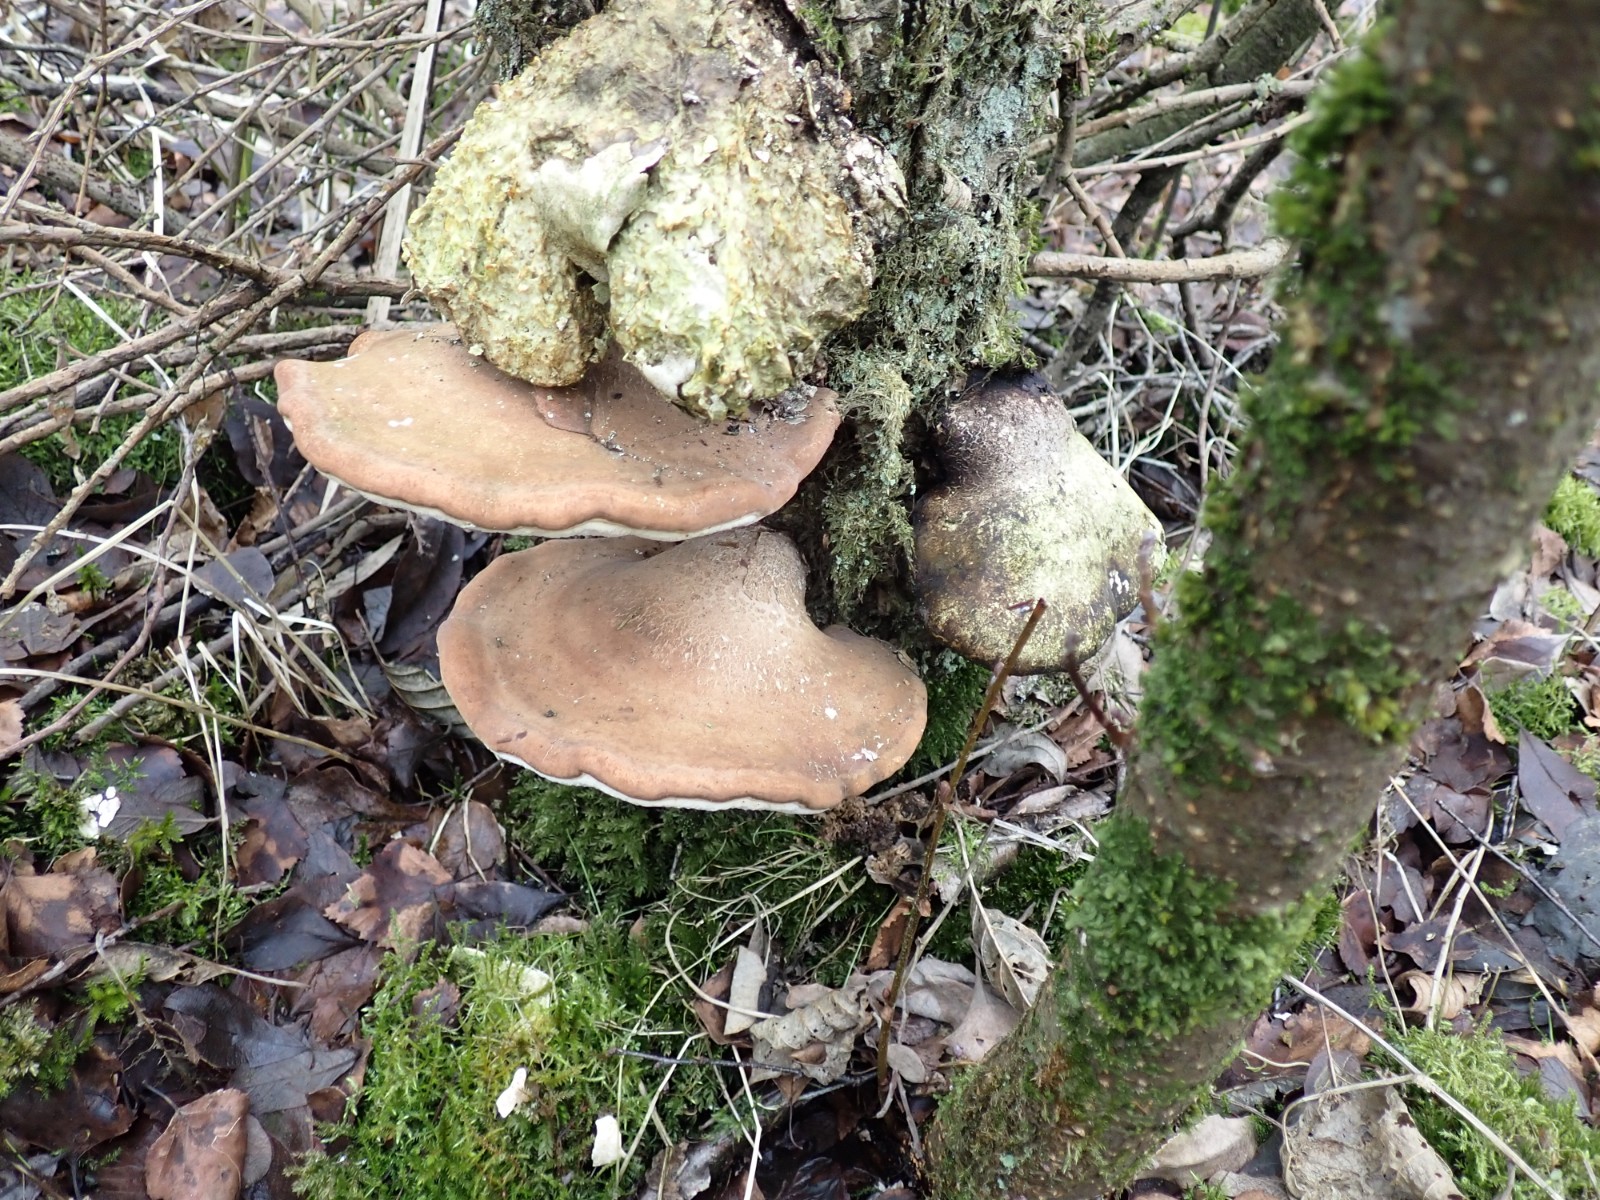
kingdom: Fungi
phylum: Basidiomycota
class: Agaricomycetes
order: Polyporales
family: Fomitopsidaceae
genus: Fomitopsis
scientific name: Fomitopsis betulina
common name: birkeporesvamp
